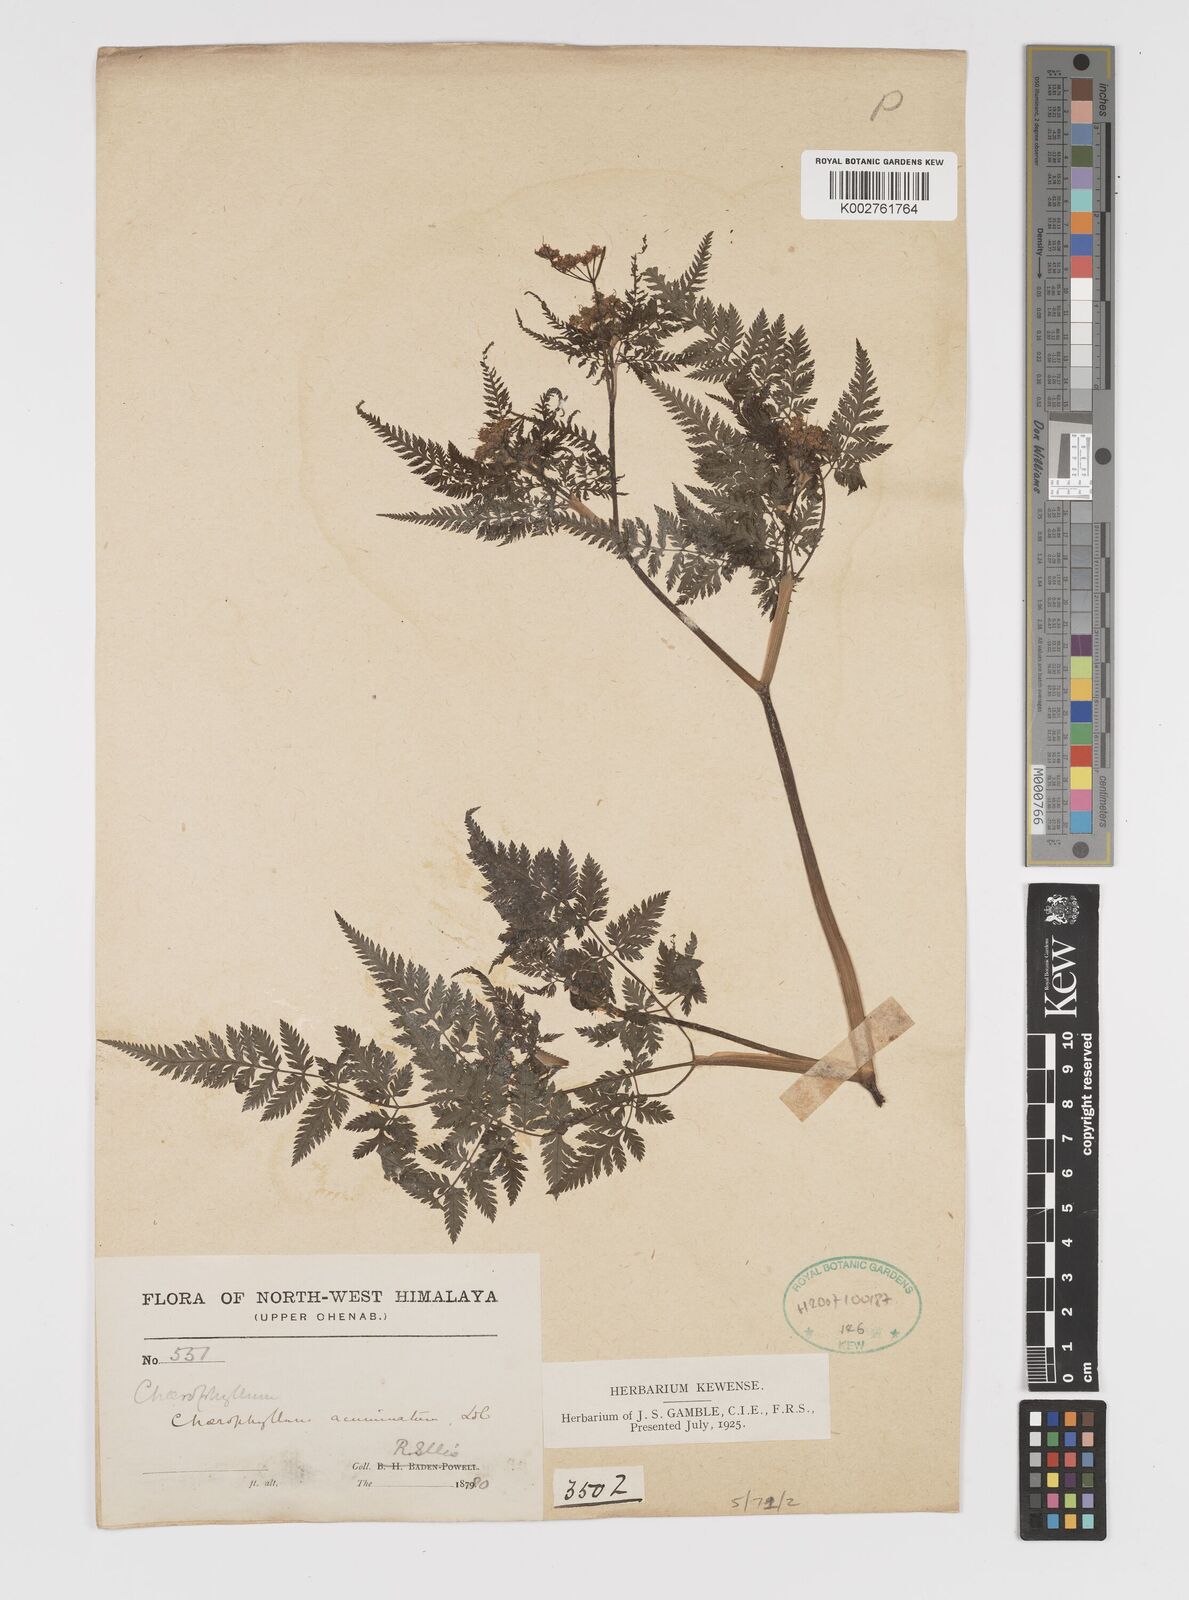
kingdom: Plantae
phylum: Tracheophyta
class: Magnoliopsida
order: Apiales
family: Apiaceae
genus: Chaerophyllum
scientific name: Chaerophyllum reflexum
